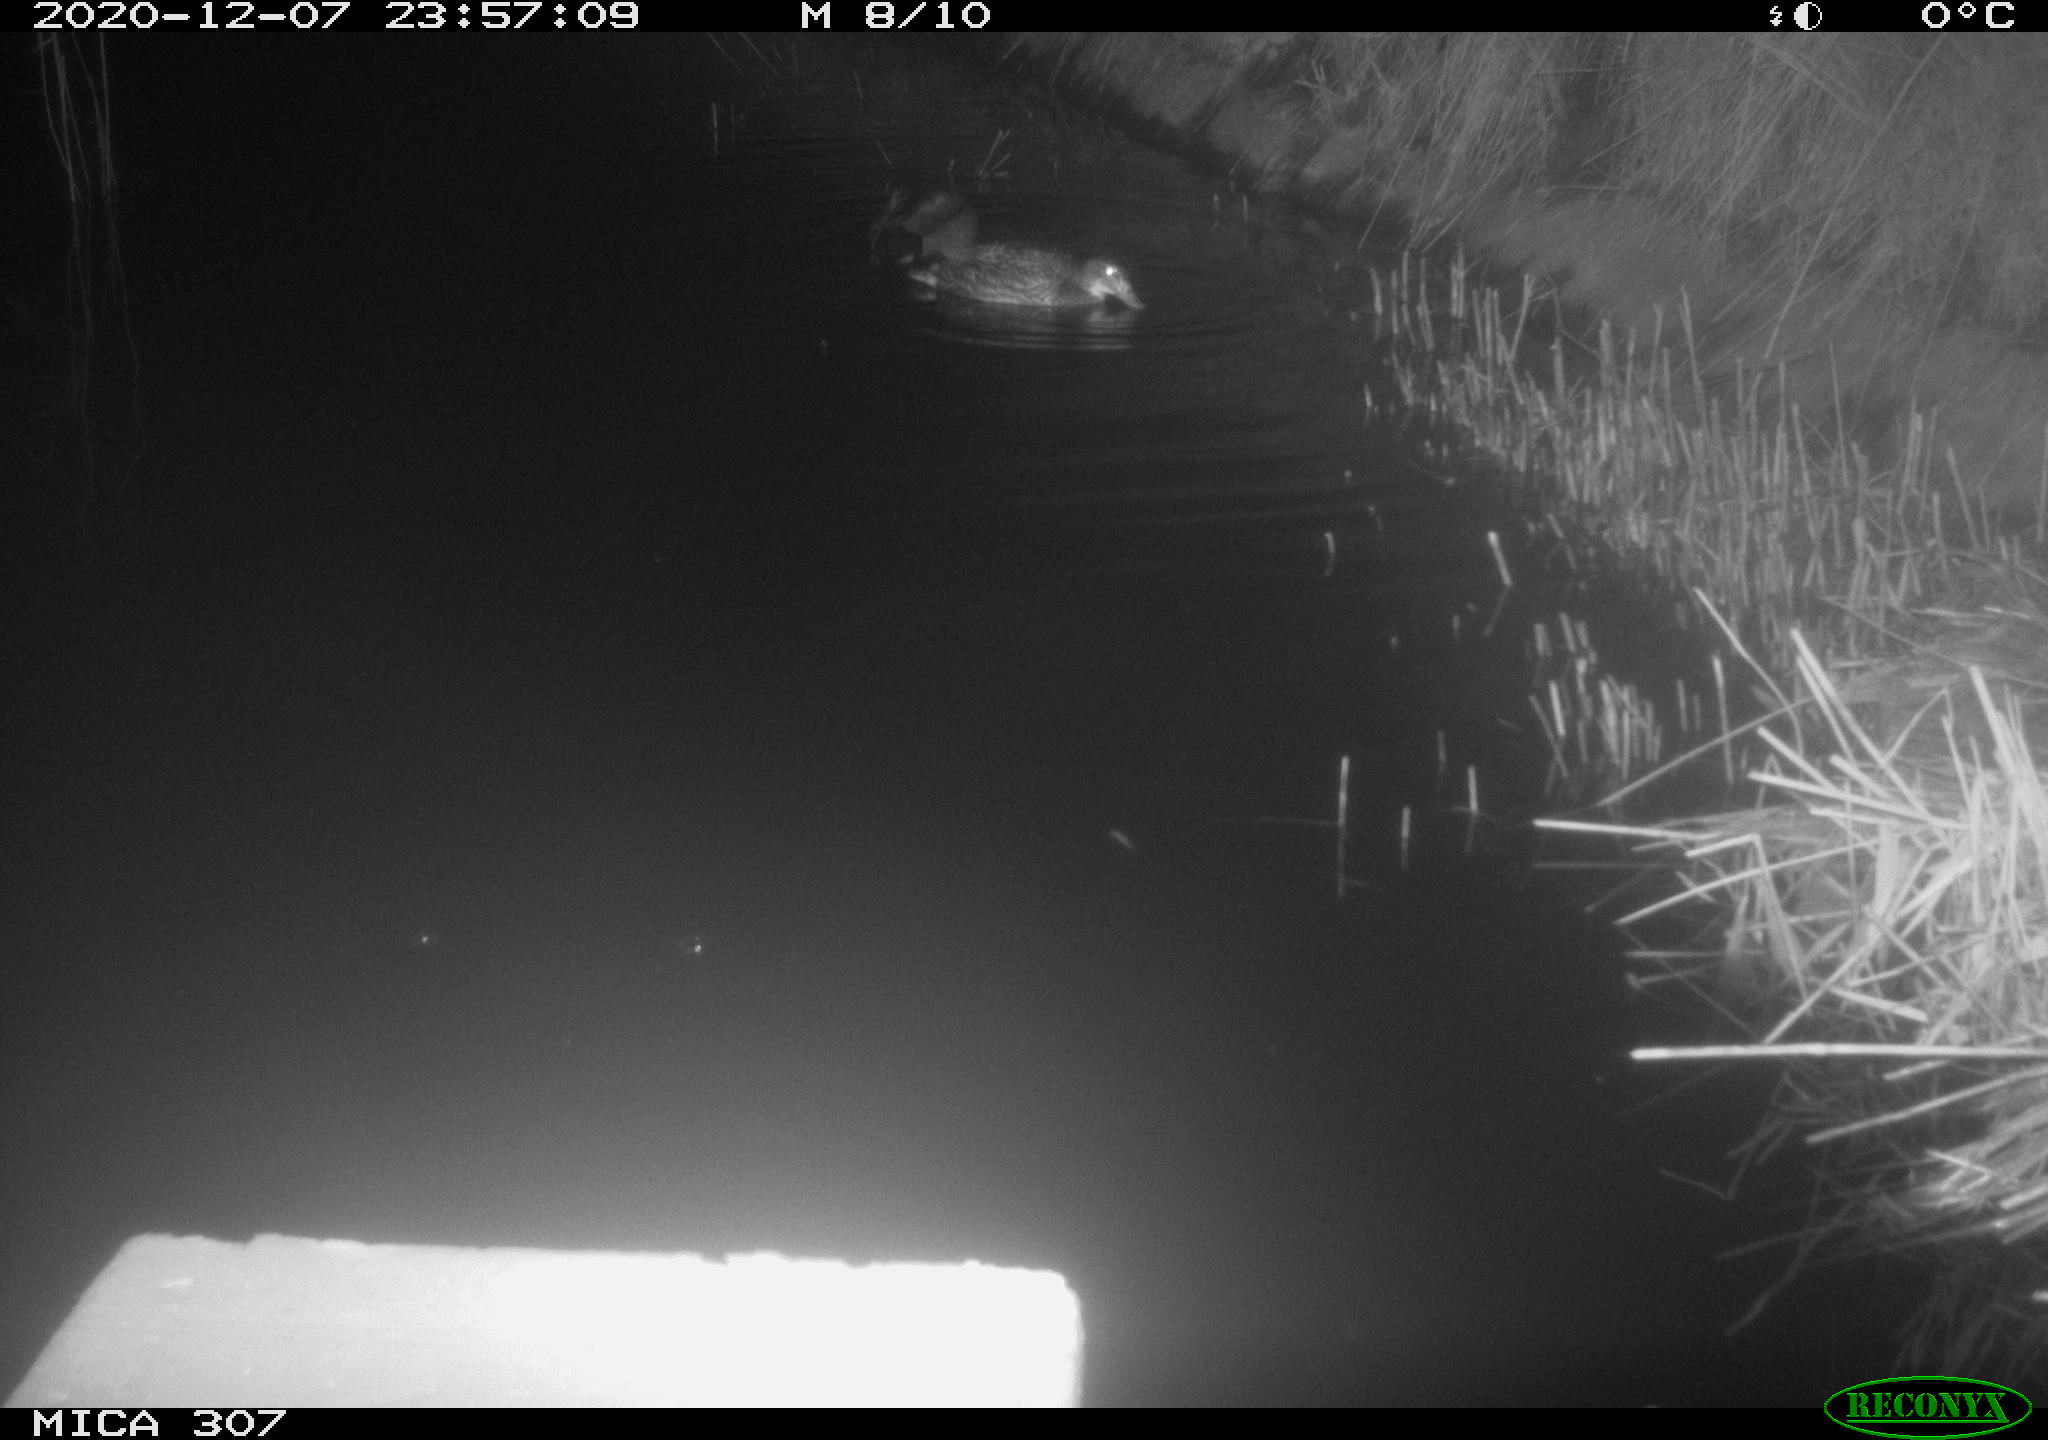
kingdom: Animalia
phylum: Chordata
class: Mammalia
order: Rodentia
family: Muridae
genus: Rattus
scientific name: Rattus norvegicus
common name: Brown rat
